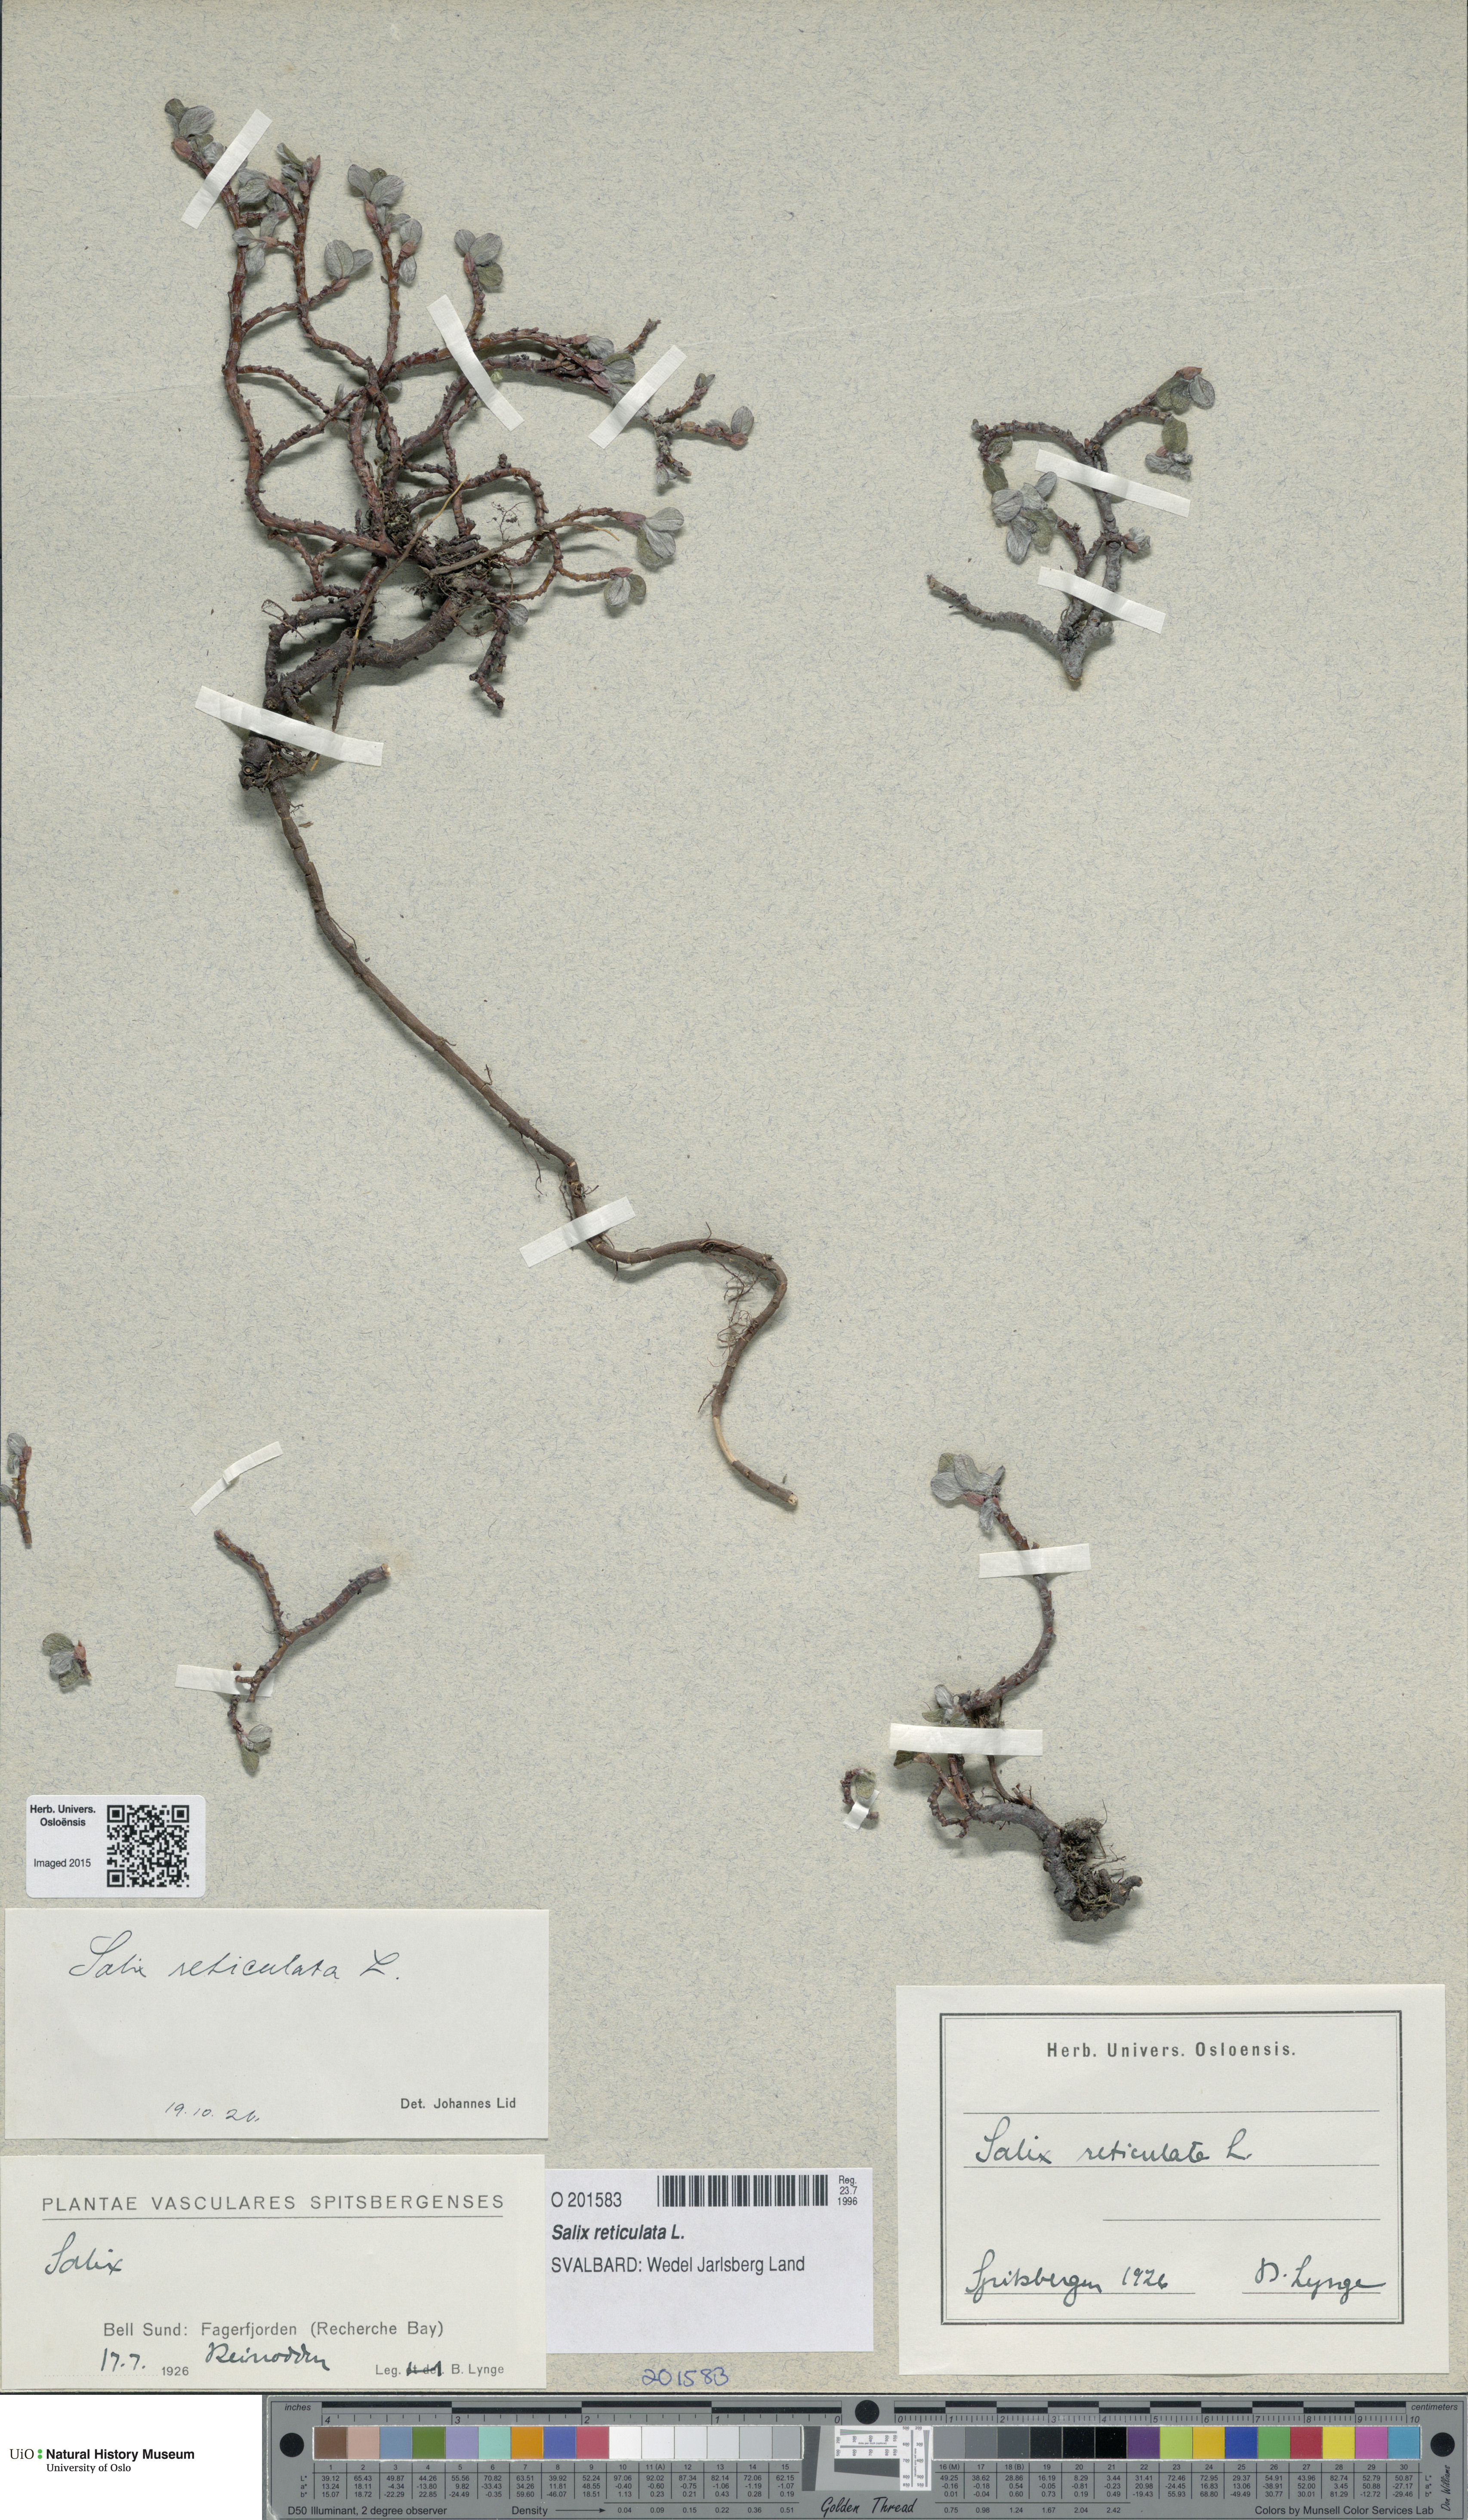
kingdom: Plantae
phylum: Tracheophyta
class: Magnoliopsida
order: Malpighiales
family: Salicaceae
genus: Salix
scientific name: Salix reticulata
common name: Net-leaved willow
